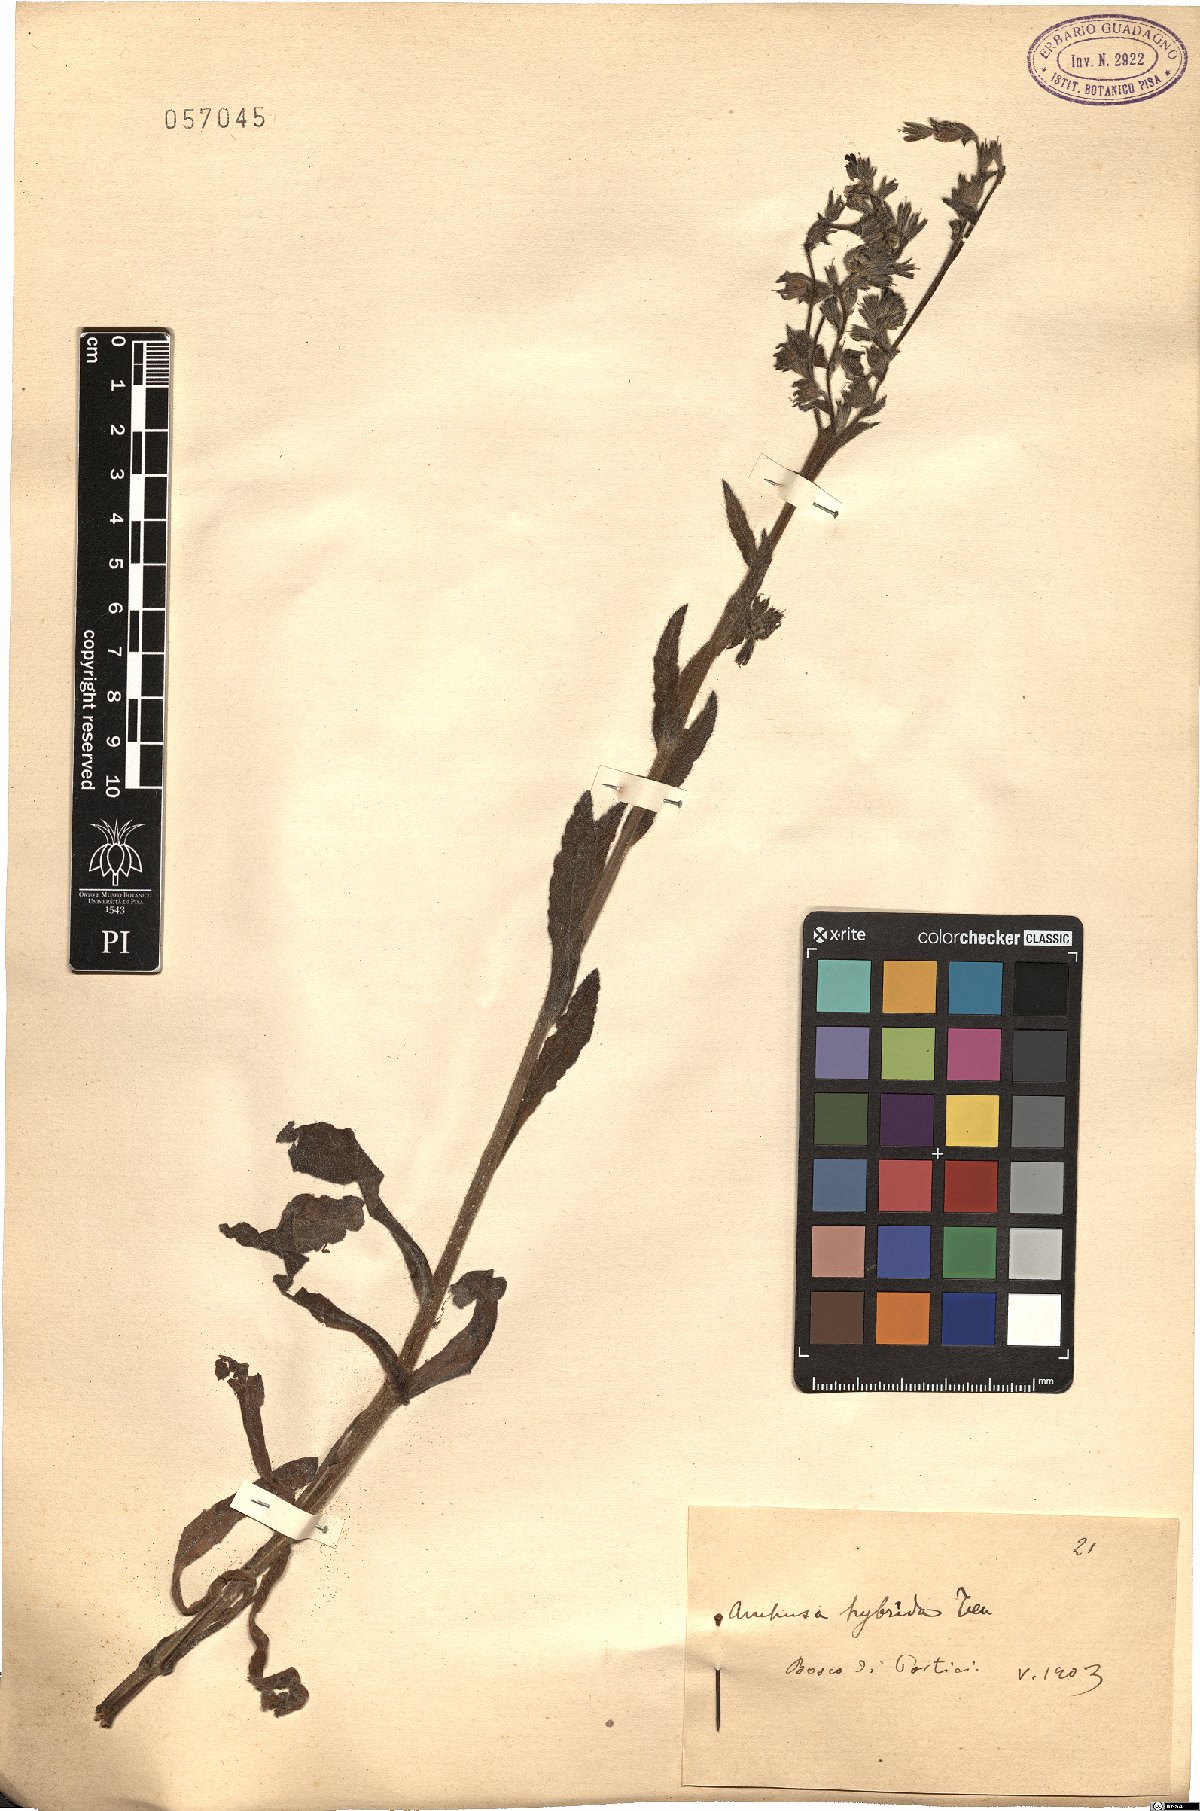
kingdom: Plantae
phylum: Tracheophyta
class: Magnoliopsida
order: Boraginales
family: Boraginaceae
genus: Anchusa
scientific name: Anchusa hybrida
